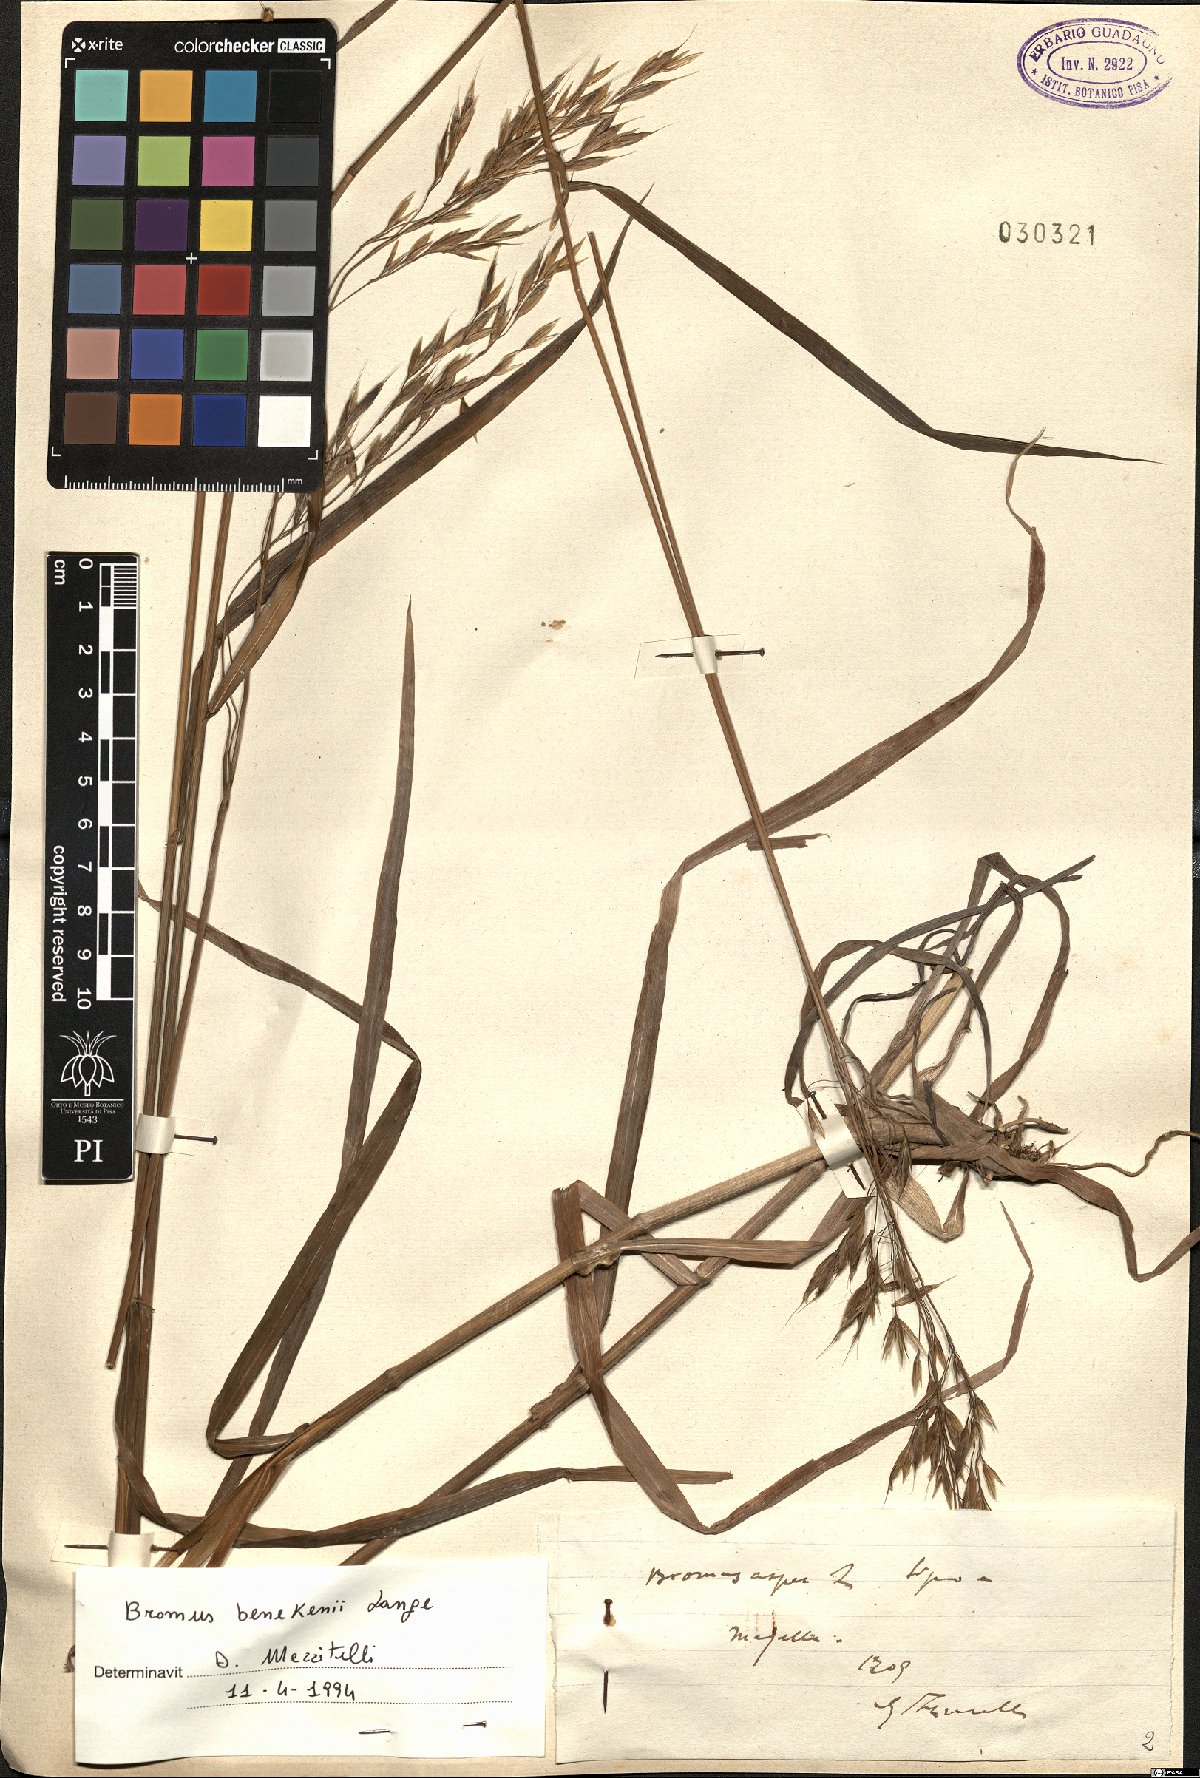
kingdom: Plantae
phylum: Tracheophyta
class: Liliopsida
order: Poales
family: Poaceae
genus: Bromus
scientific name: Bromus benekenii
